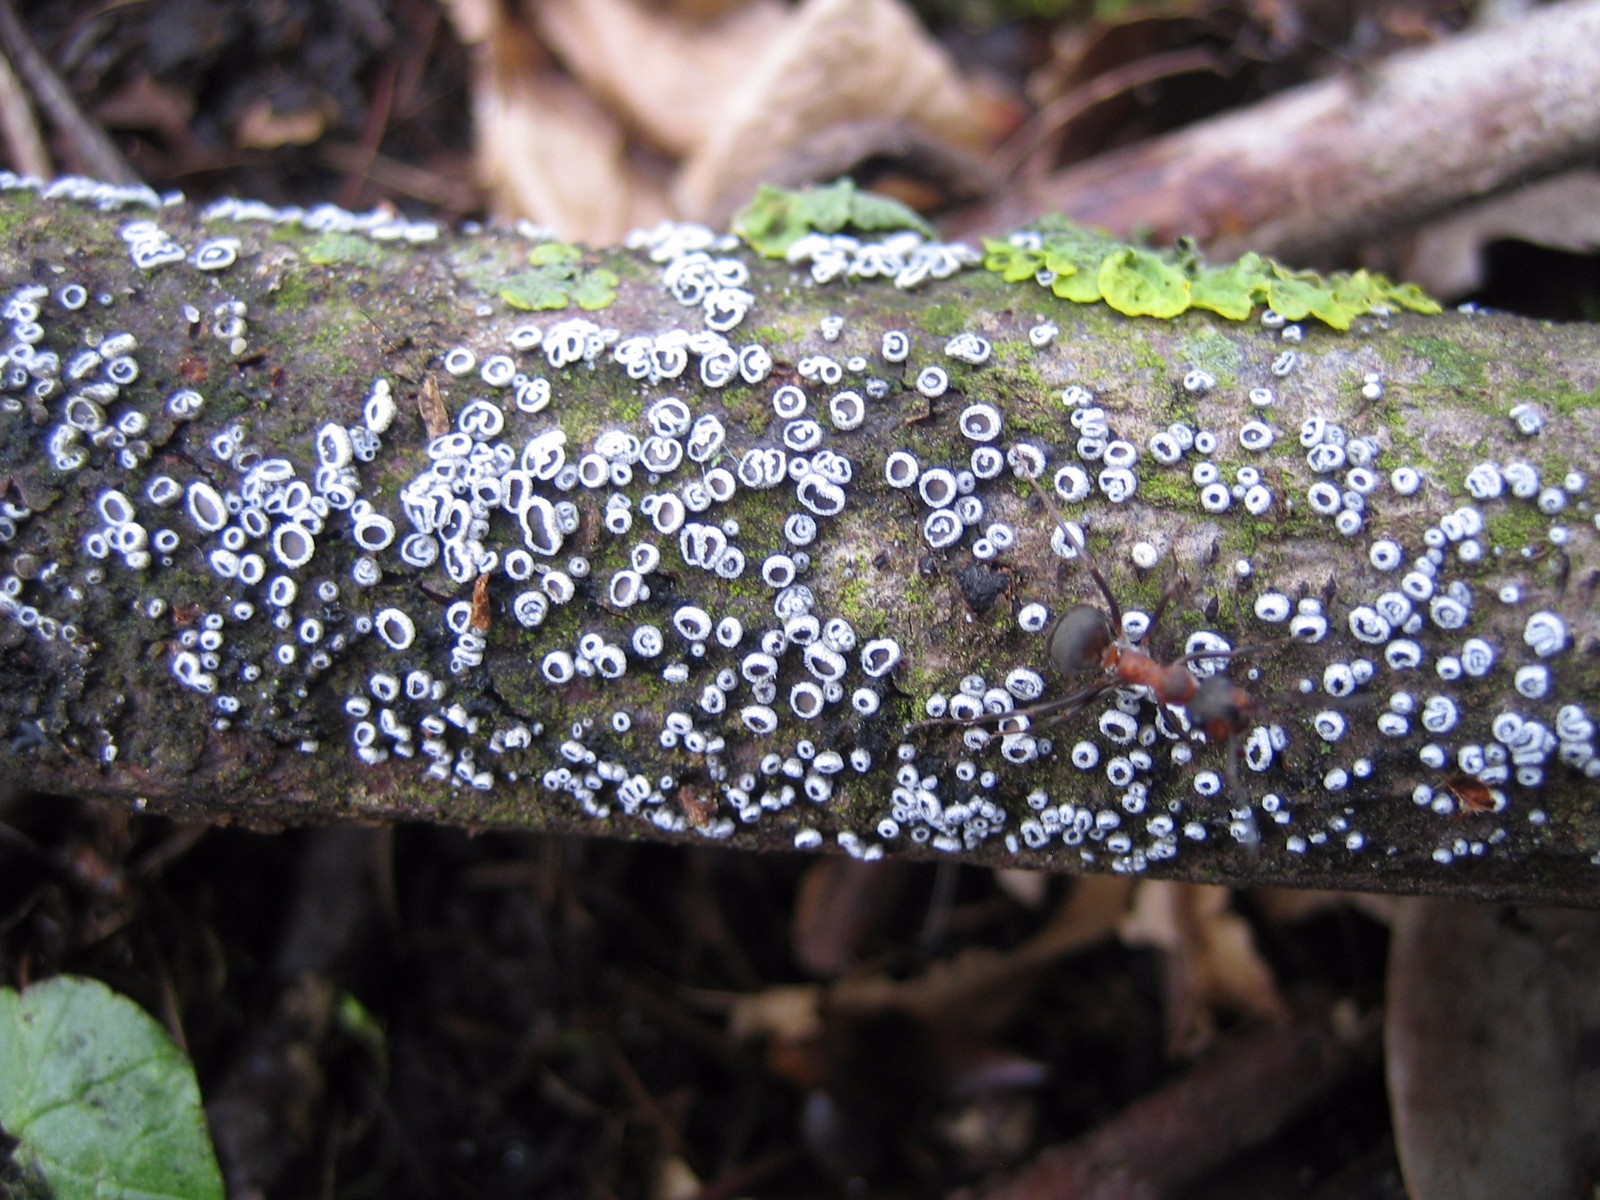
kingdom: Fungi
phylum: Basidiomycota
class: Agaricomycetes
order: Agaricales
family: Niaceae
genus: Lachnella
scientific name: Lachnella alboviolascens
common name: grå frynserede
